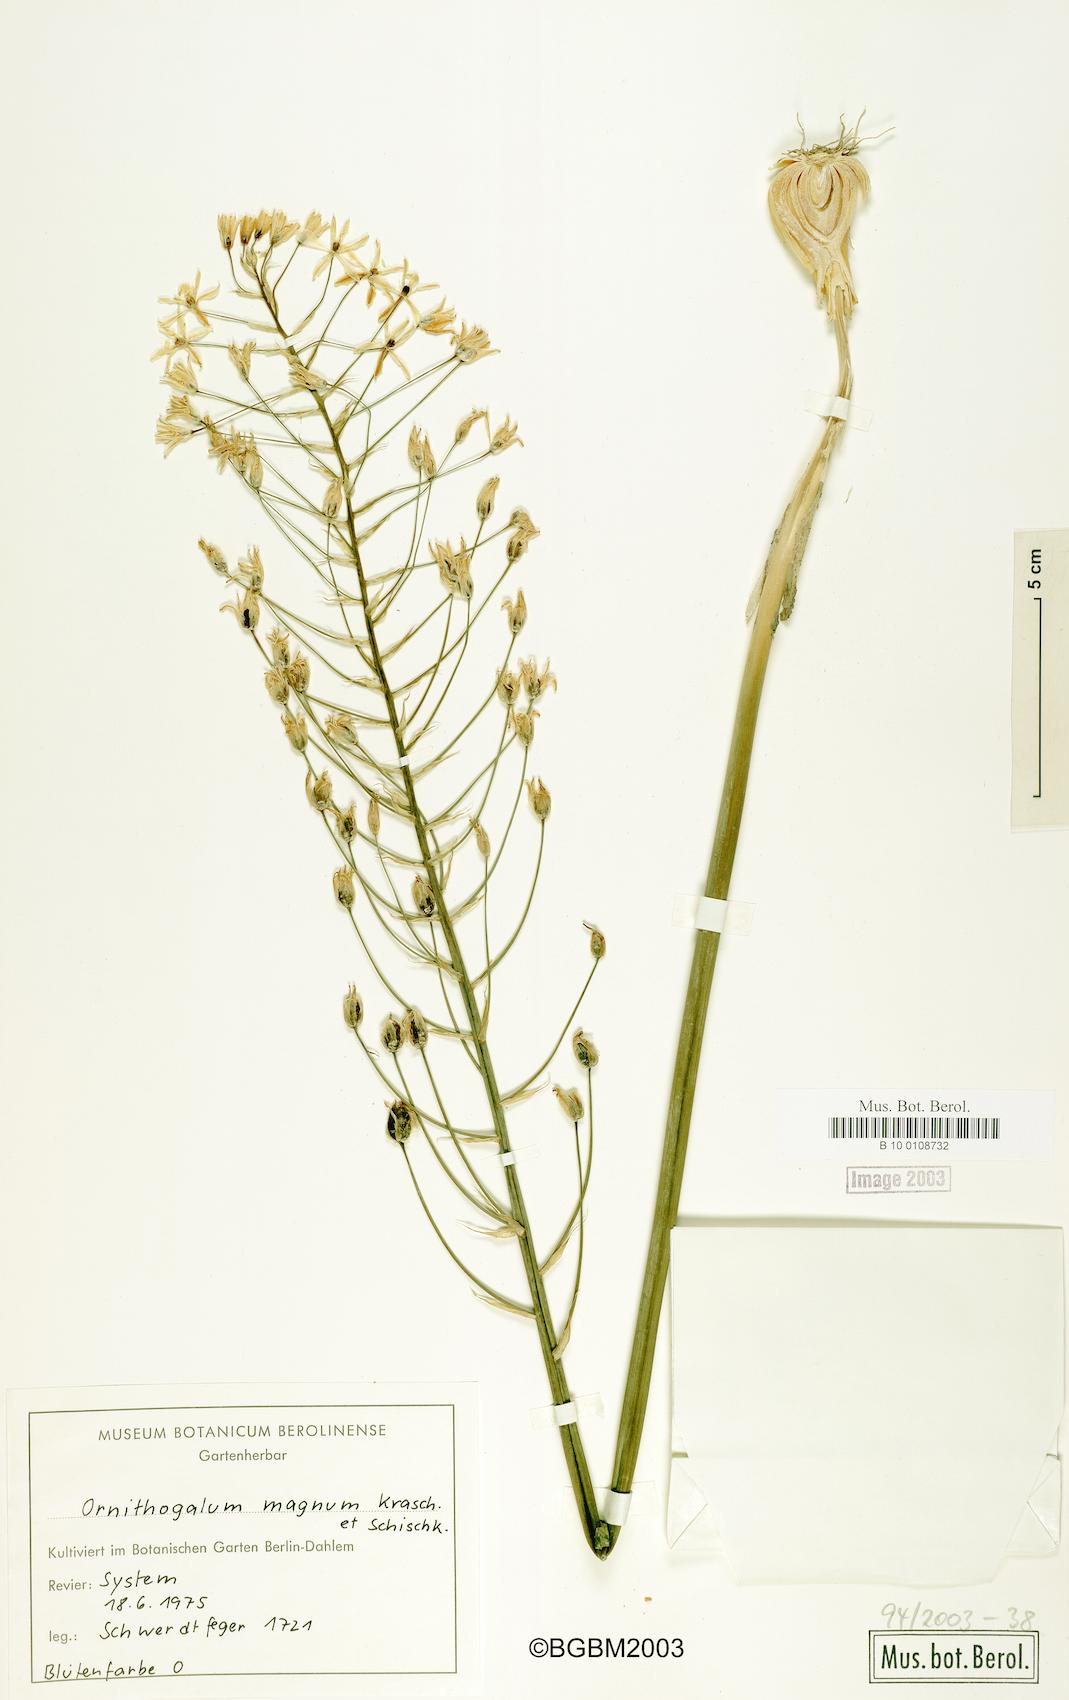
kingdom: Plantae
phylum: Tracheophyta
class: Liliopsida
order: Asparagales
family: Asparagaceae
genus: Ornithogalum
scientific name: Ornithogalum magnum
